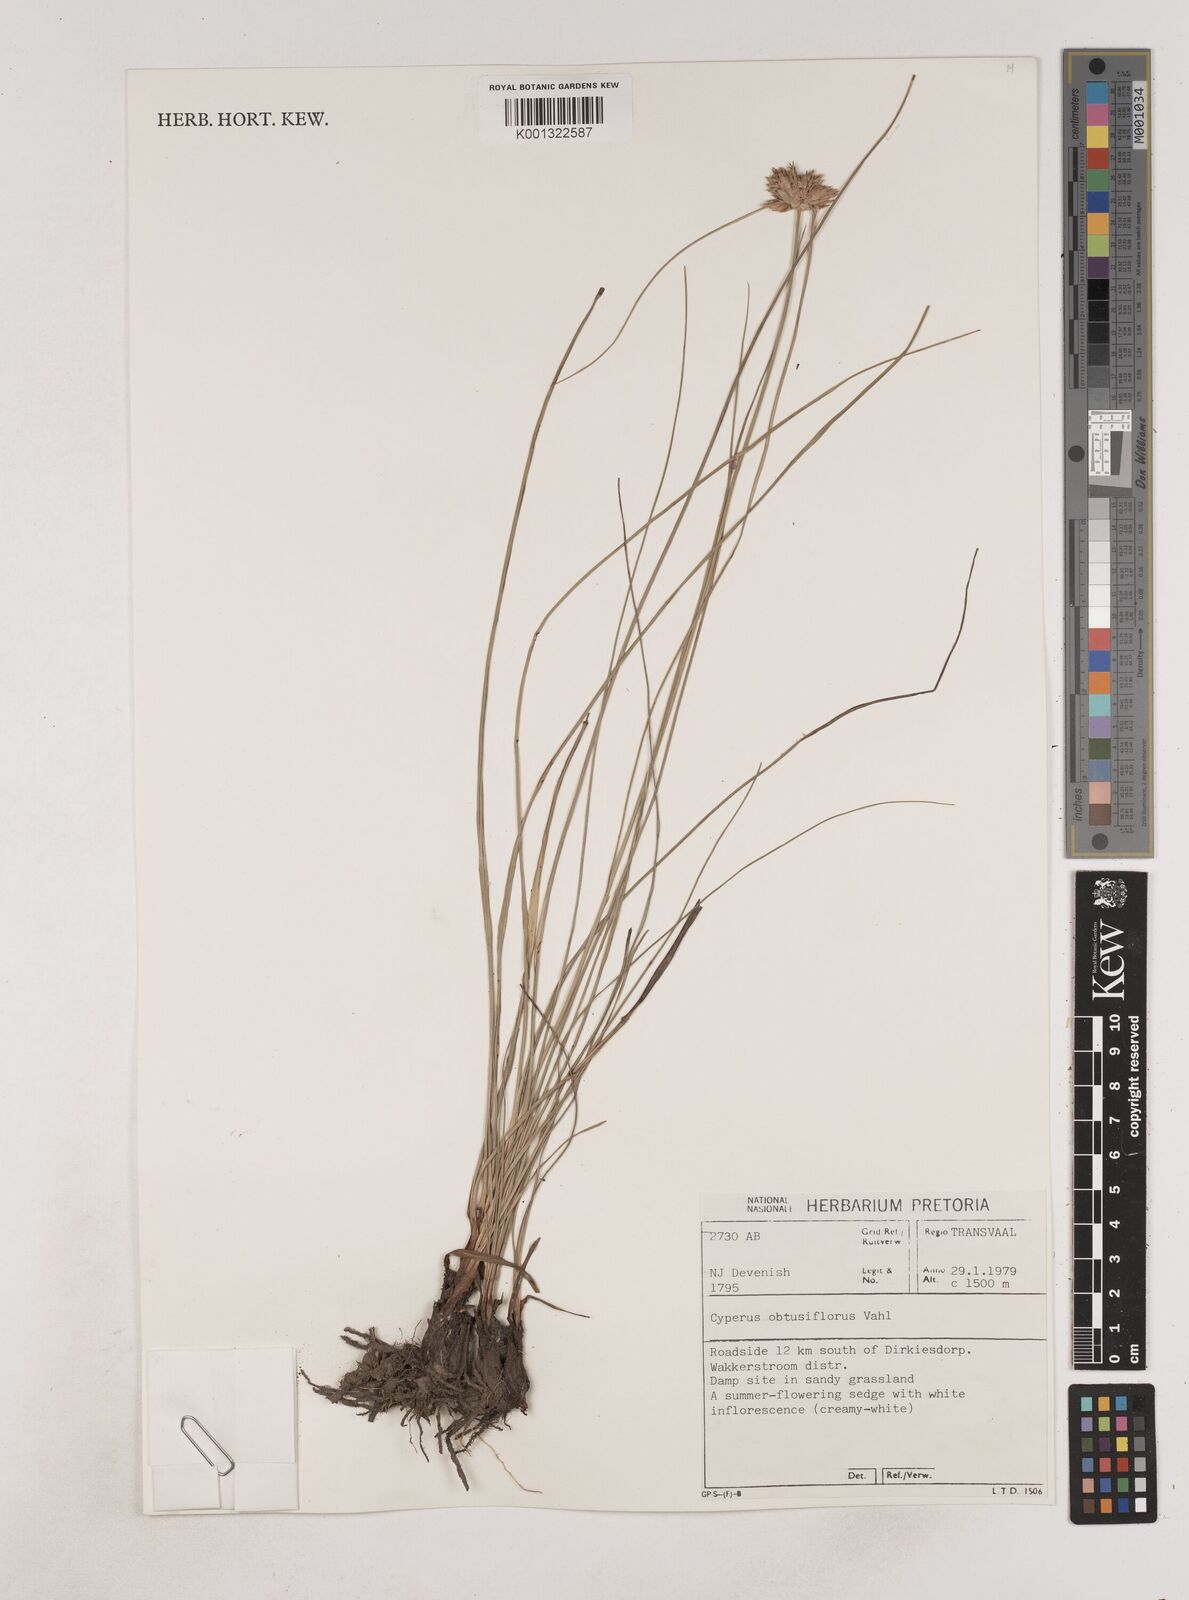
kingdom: Plantae
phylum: Tracheophyta
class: Liliopsida
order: Poales
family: Cyperaceae
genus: Cyperus
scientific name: Cyperus niveus
